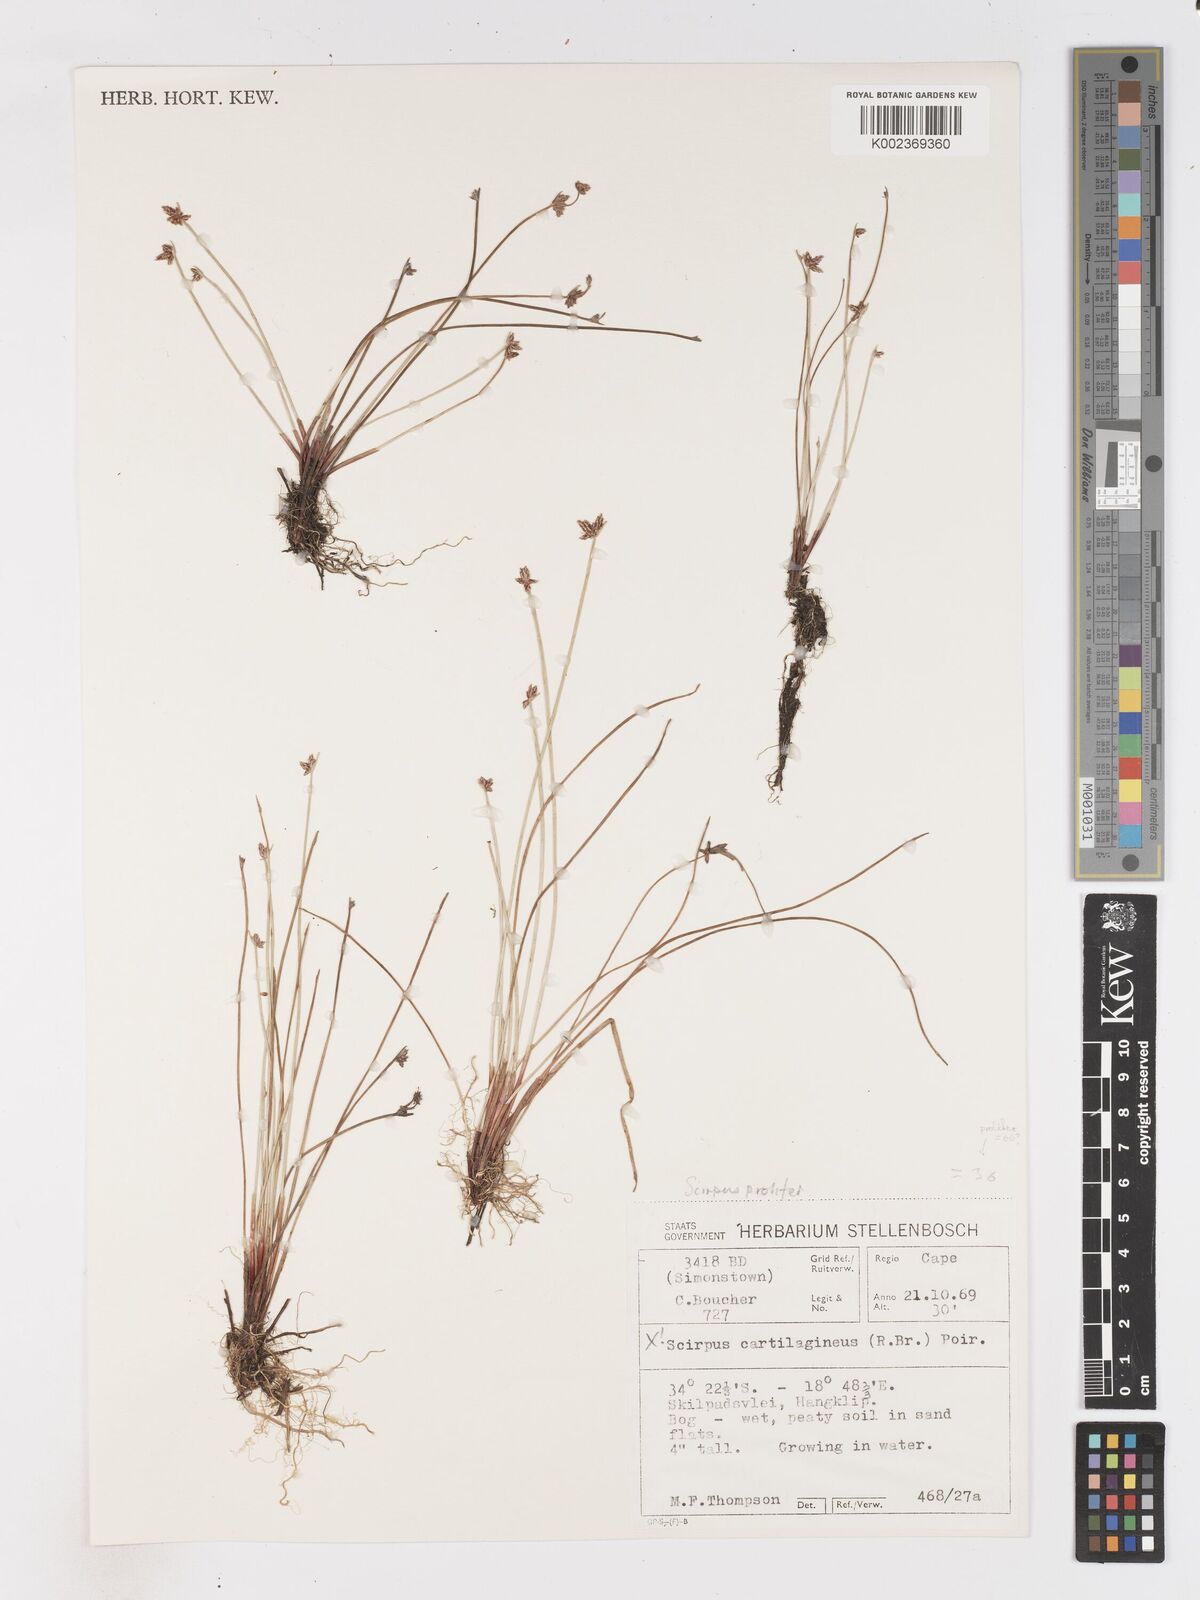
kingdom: Plantae
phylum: Tracheophyta
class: Liliopsida
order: Poales
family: Cyperaceae
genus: Isolepis
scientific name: Isolepis prolifera
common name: Proliferating bulrush
